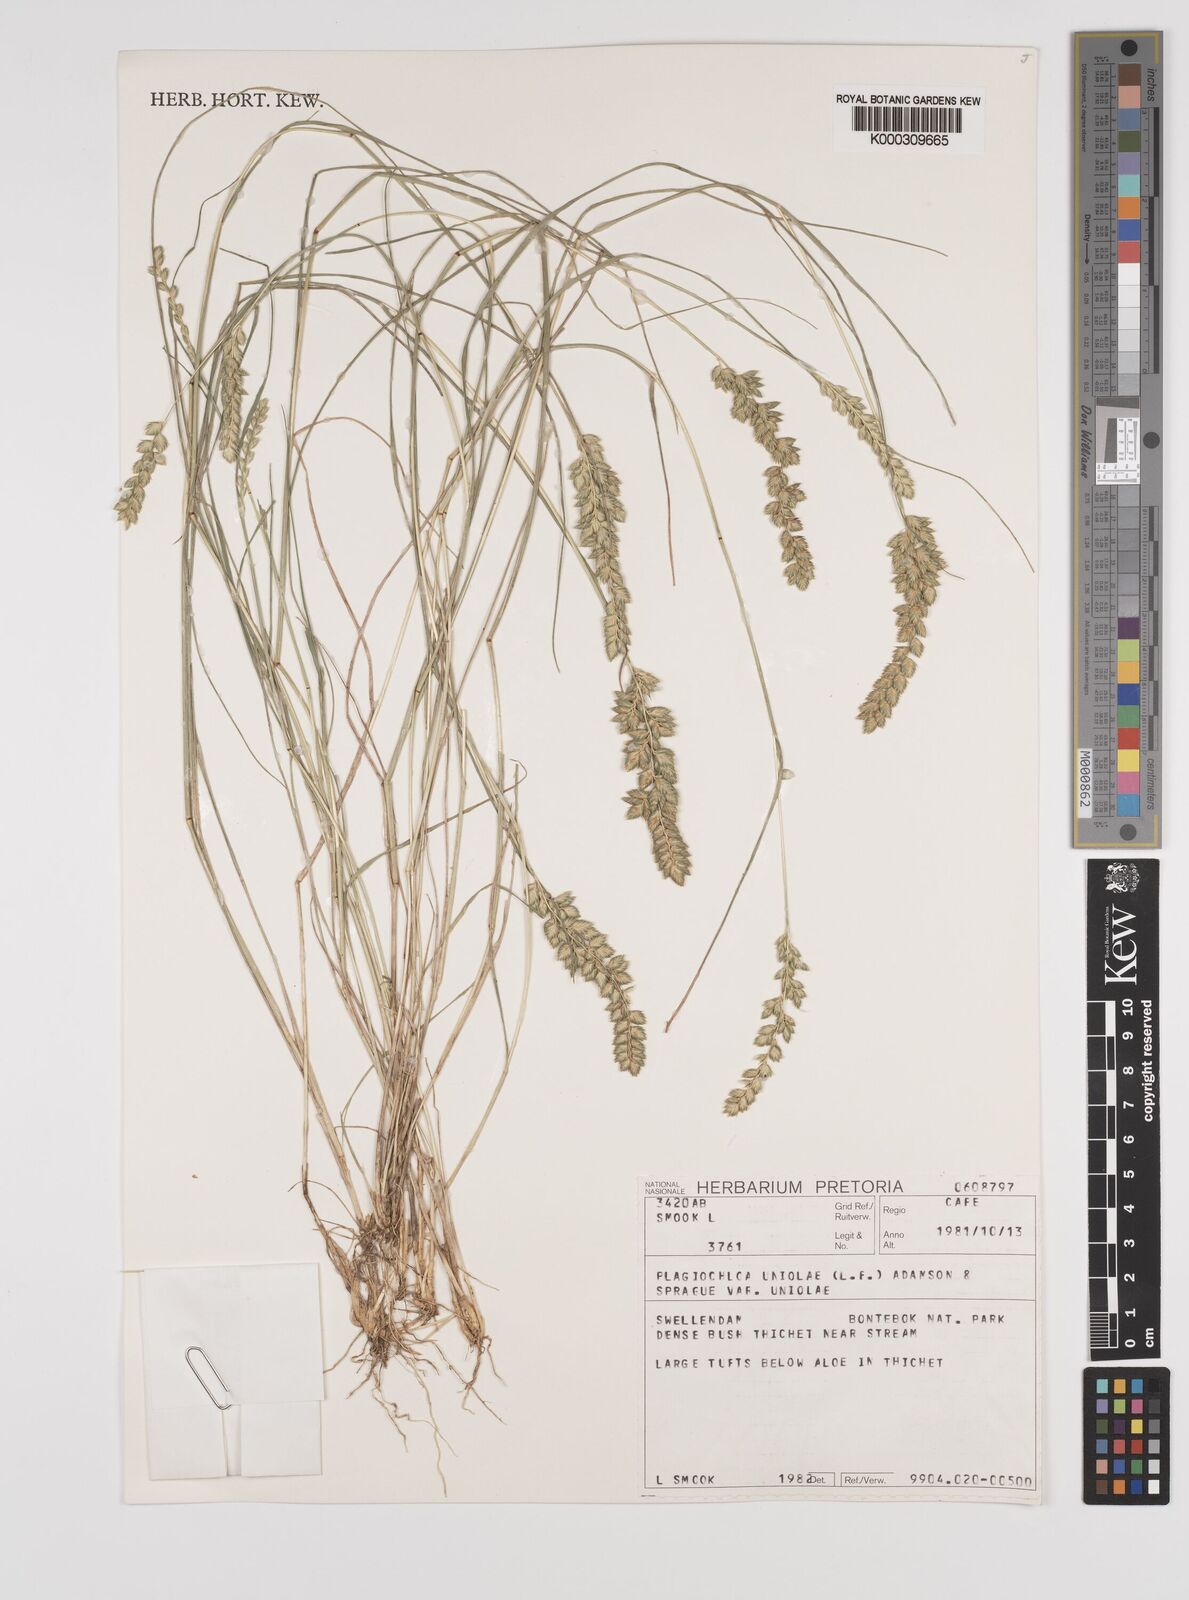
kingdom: Plantae
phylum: Tracheophyta
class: Liliopsida
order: Poales
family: Poaceae
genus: Tribolium
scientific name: Tribolium uniolae
